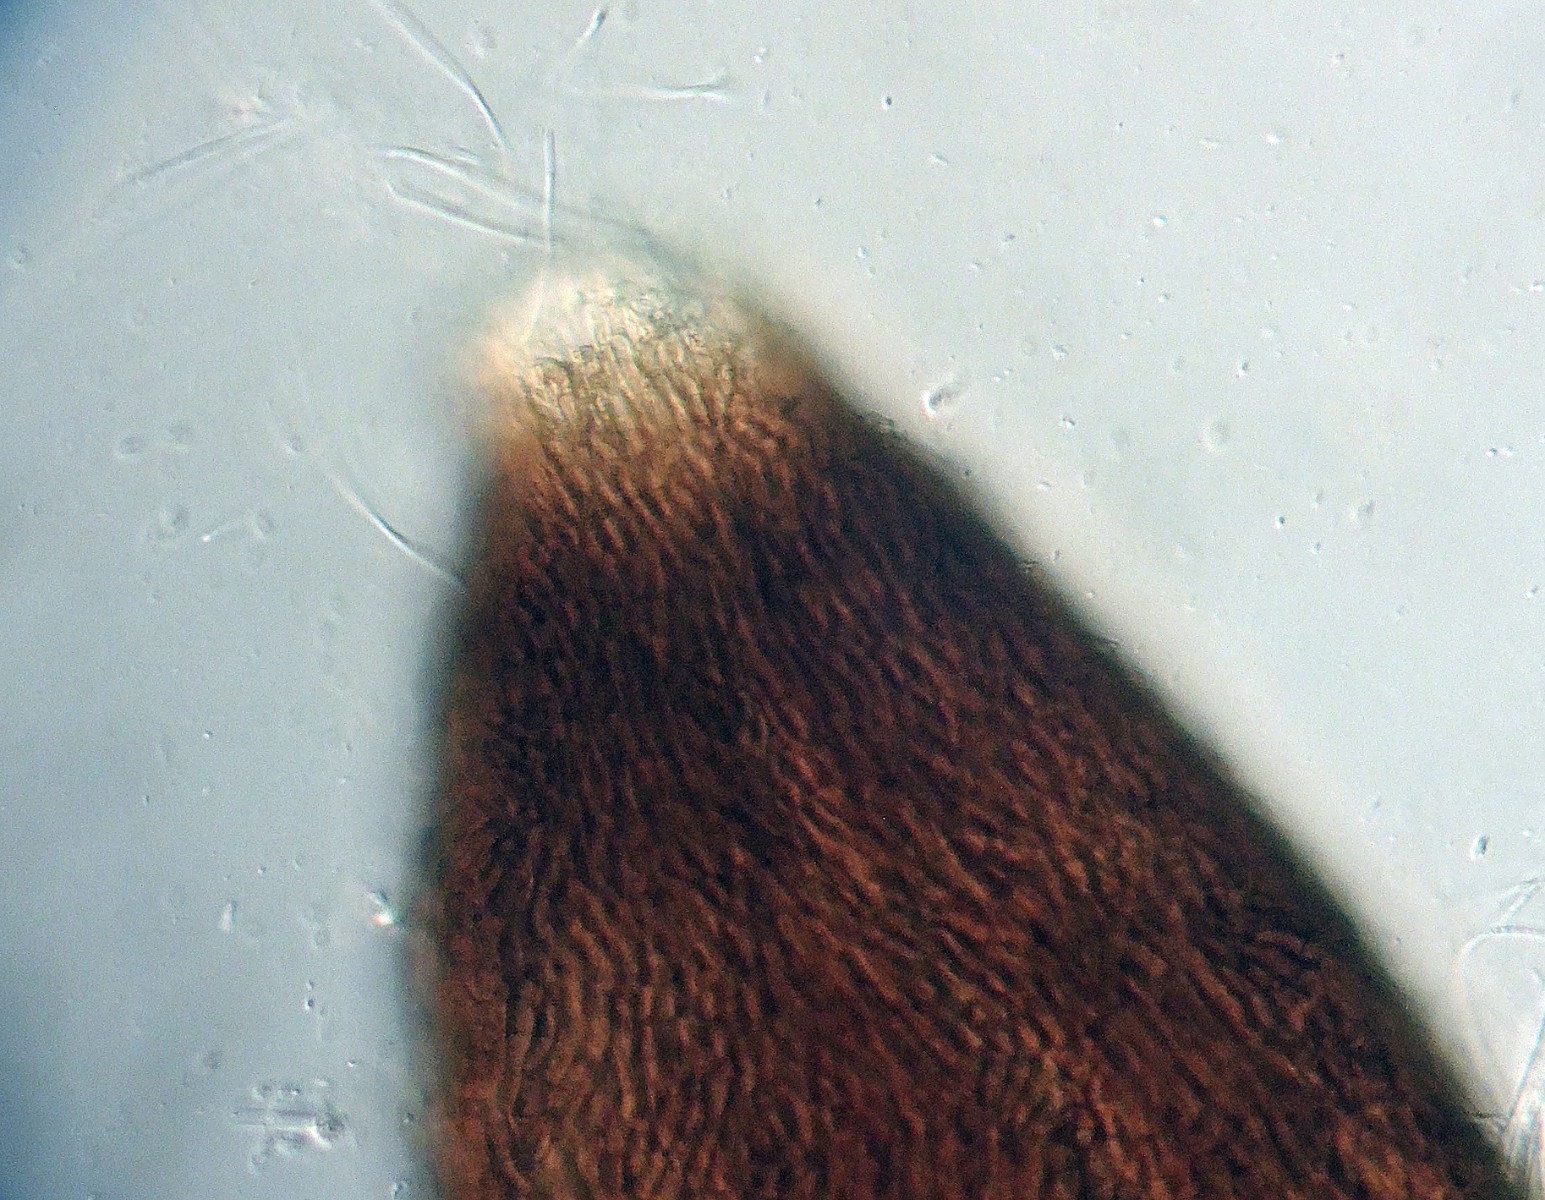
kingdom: Fungi
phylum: Ascomycota
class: Dothideomycetes
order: Acrospermales
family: Acrospermaceae
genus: Acrospermum
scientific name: Acrospermum graminum
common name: græs-stængeltunge
